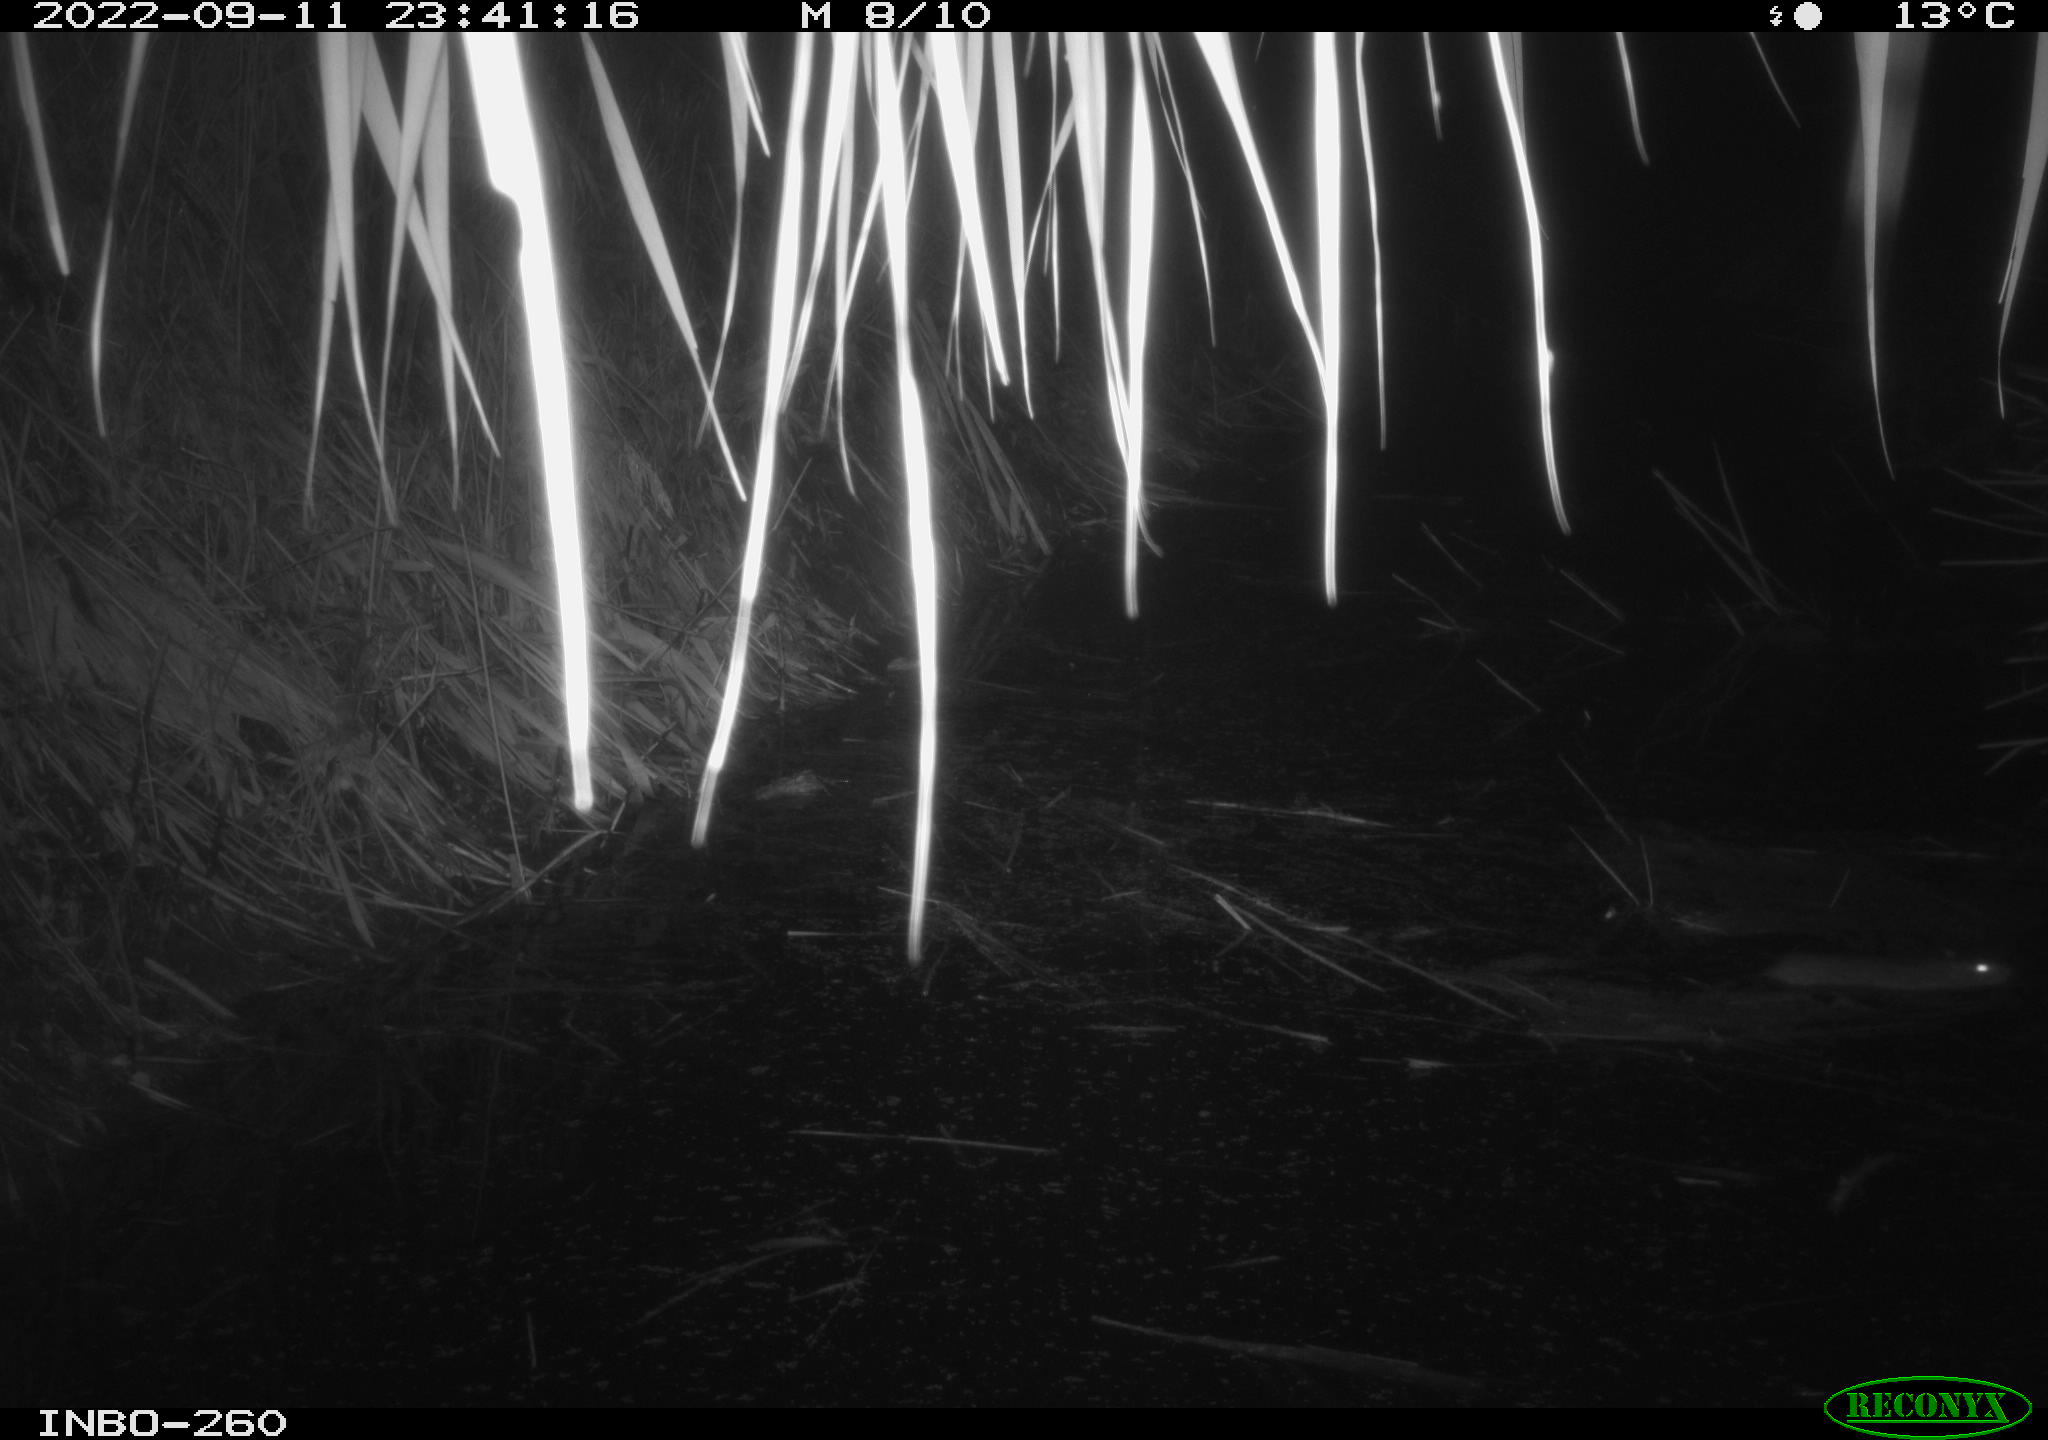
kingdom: Animalia
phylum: Chordata
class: Mammalia
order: Rodentia
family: Muridae
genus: Rattus
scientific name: Rattus norvegicus
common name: Brown rat
